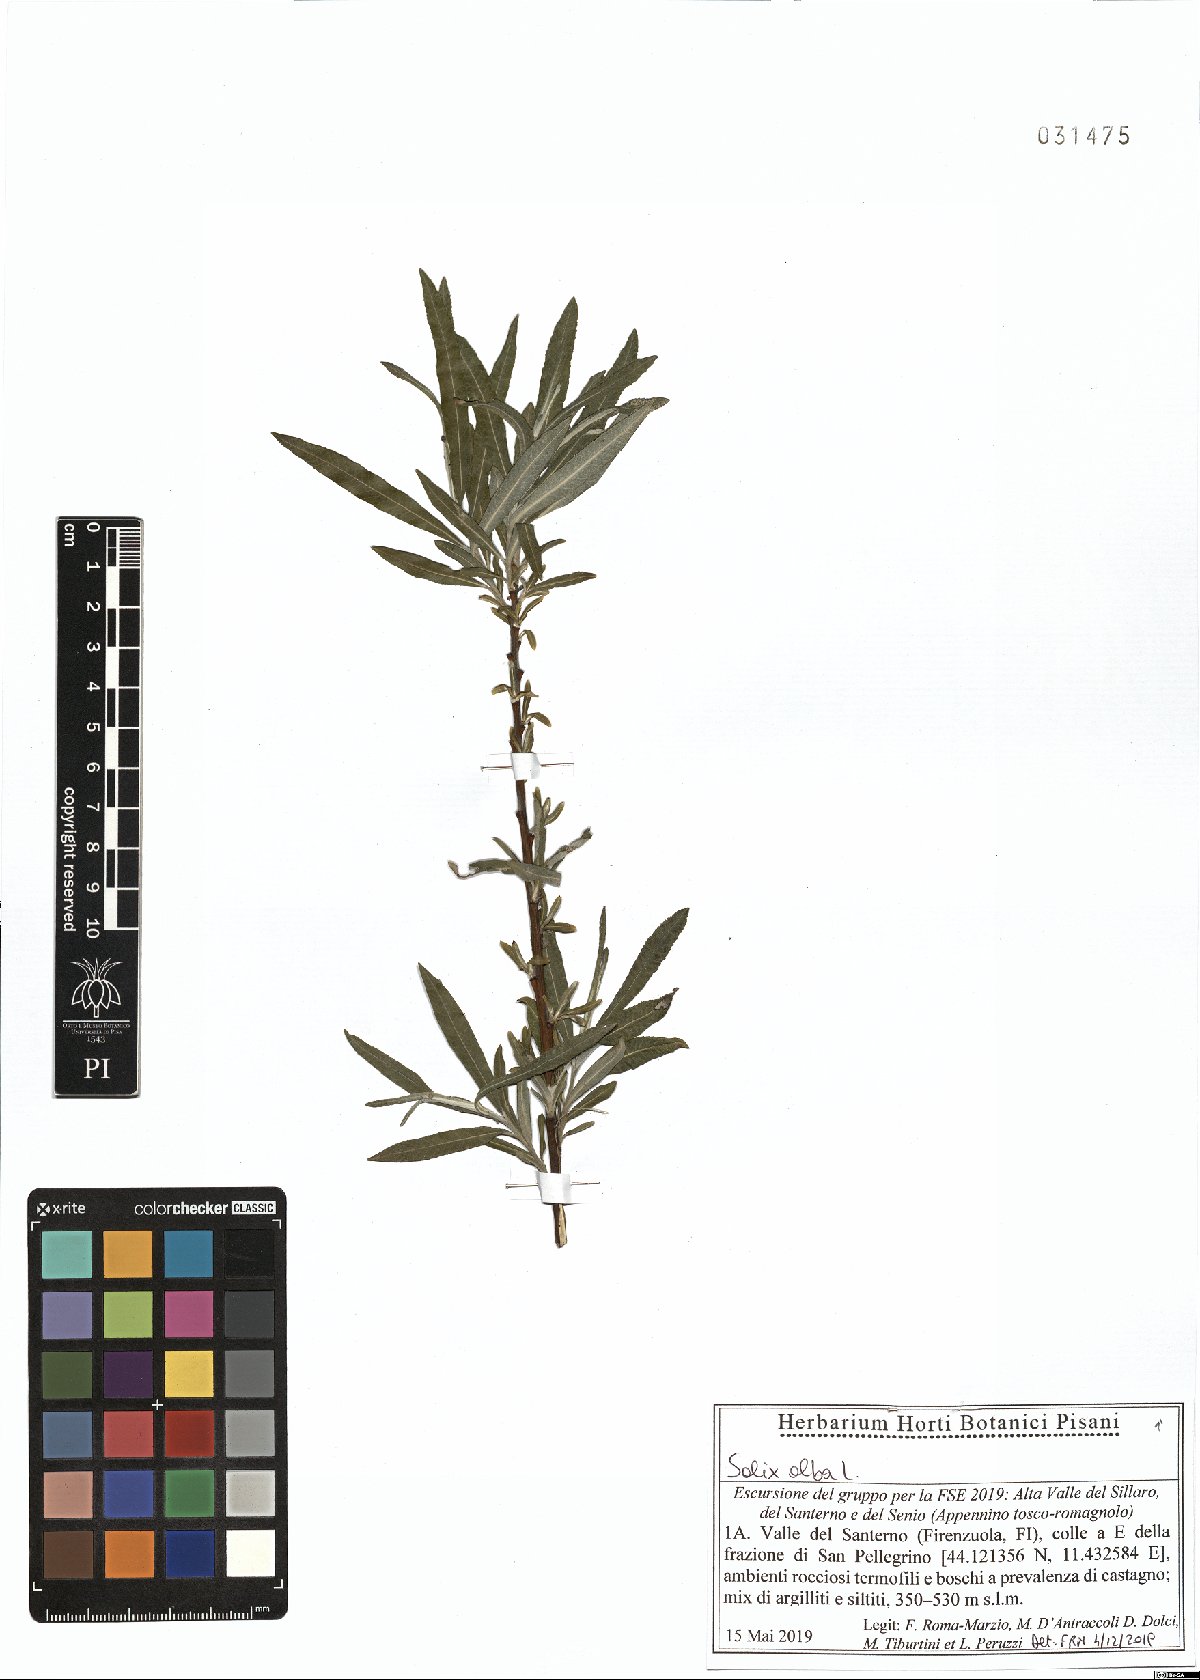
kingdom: Plantae
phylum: Tracheophyta
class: Magnoliopsida
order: Malpighiales
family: Salicaceae
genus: Salix
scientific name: Salix alba
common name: White willow
